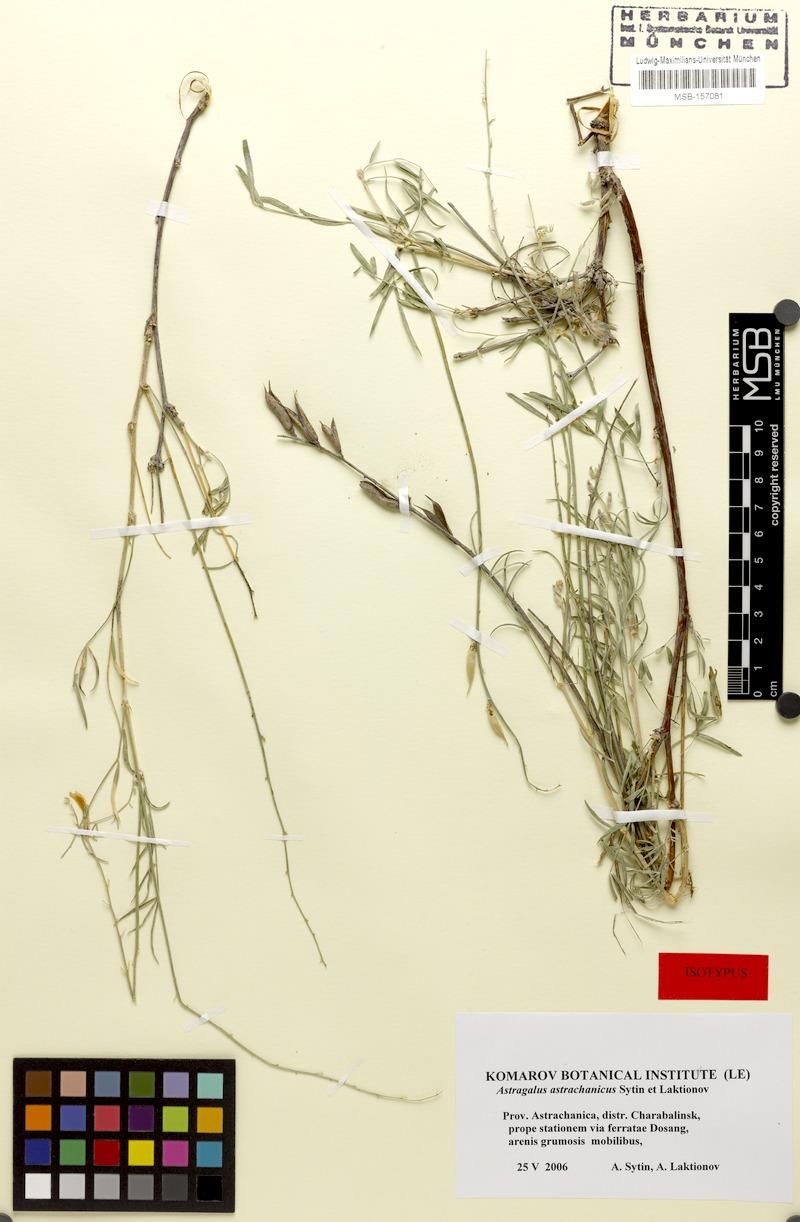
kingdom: Plantae
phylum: Tracheophyta
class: Magnoliopsida
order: Fabales
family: Fabaceae
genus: Astragalus
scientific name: Astragalus astrachanicus
